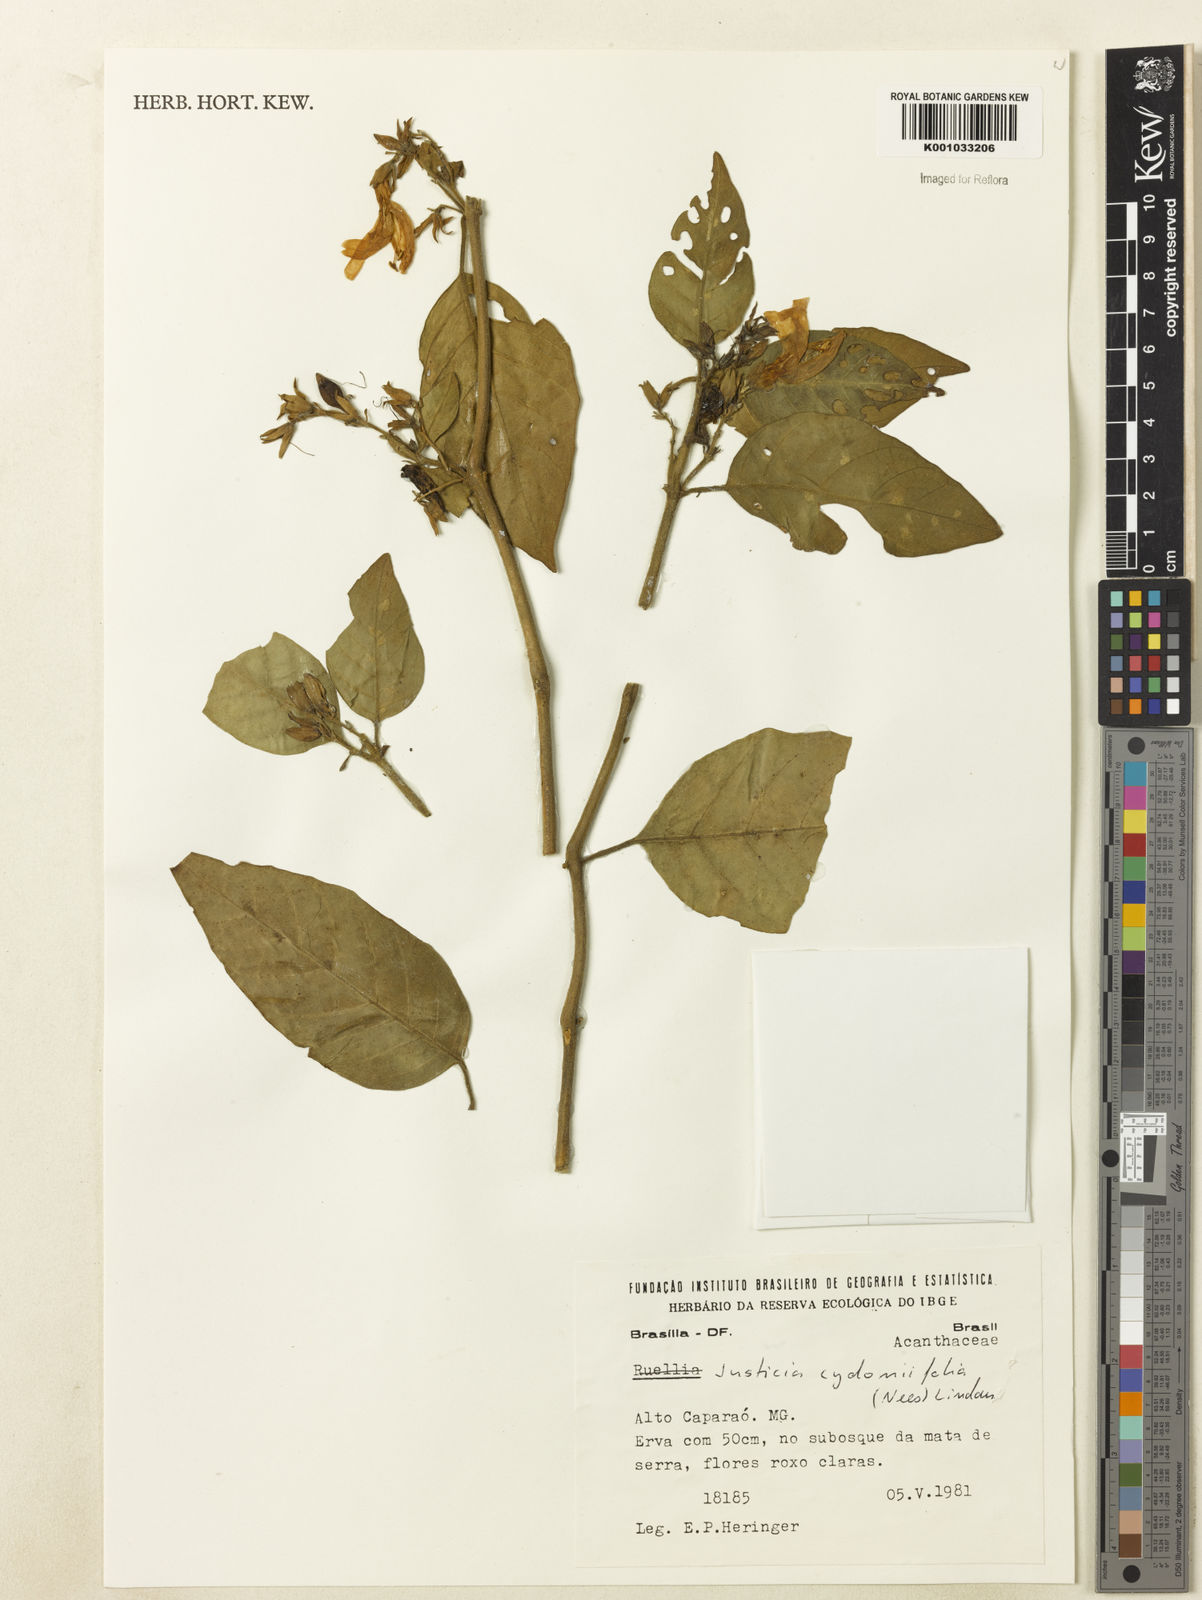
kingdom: Plantae
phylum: Tracheophyta
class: Magnoliopsida
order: Lamiales
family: Acanthaceae
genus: Justicia
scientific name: Justicia
